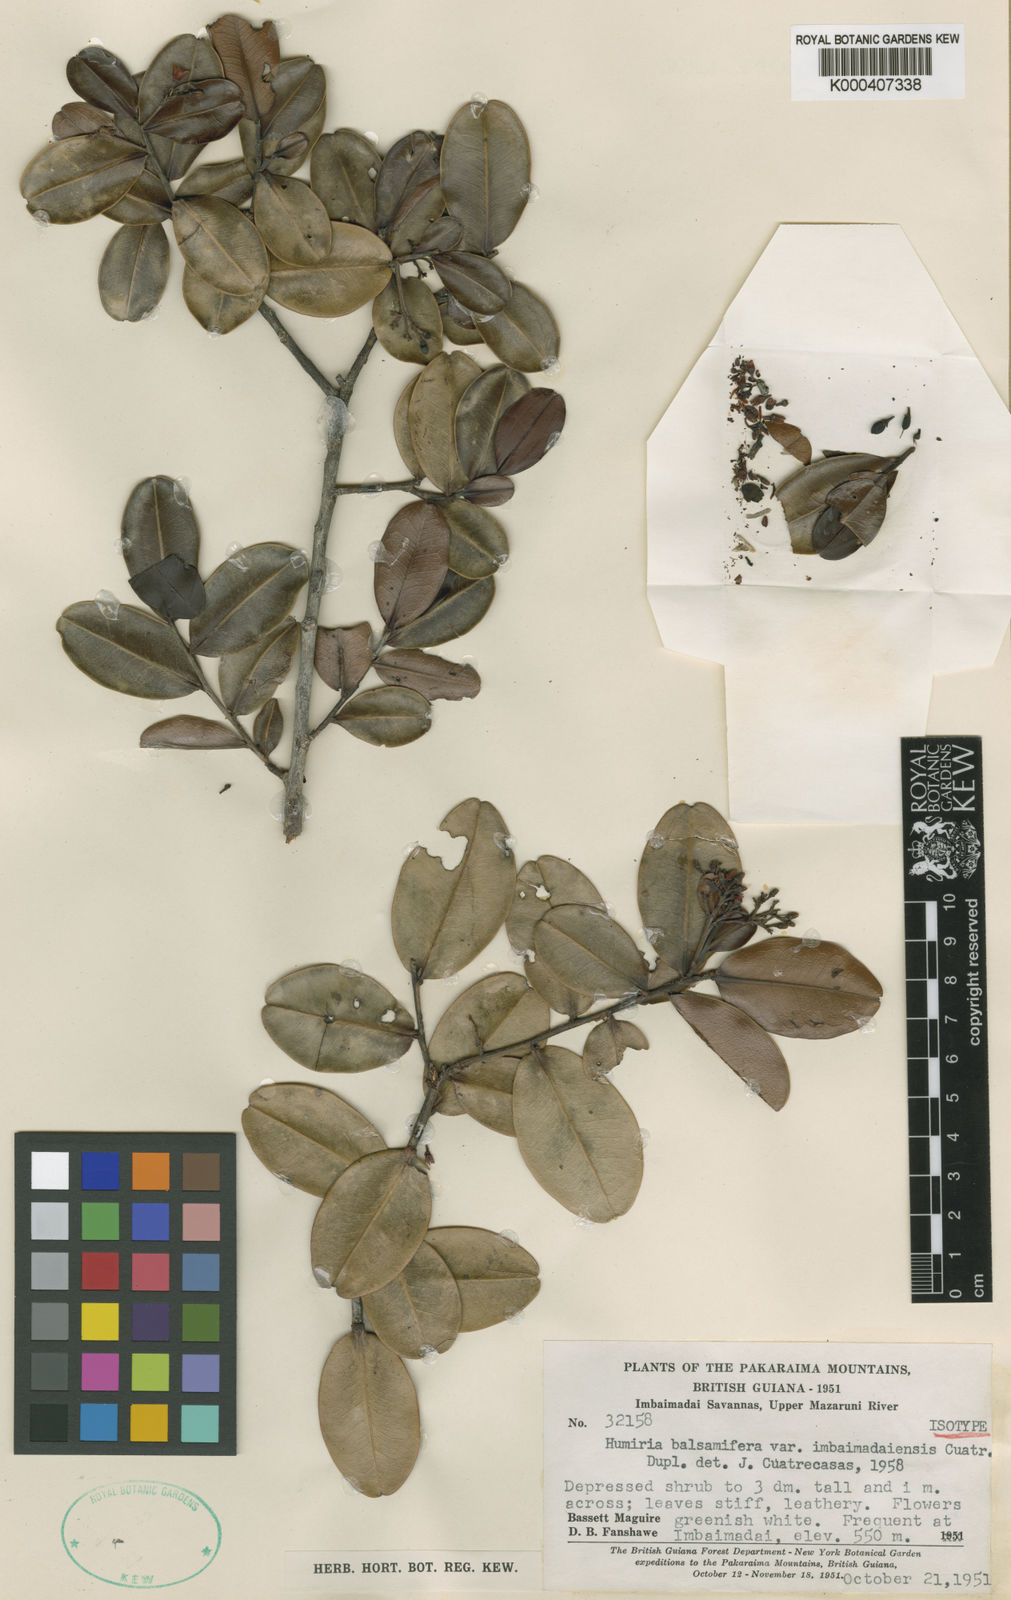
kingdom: Plantae
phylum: Tracheophyta
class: Magnoliopsida
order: Malpighiales
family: Humiriaceae
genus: Humiria
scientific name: Humiria balsamifera
